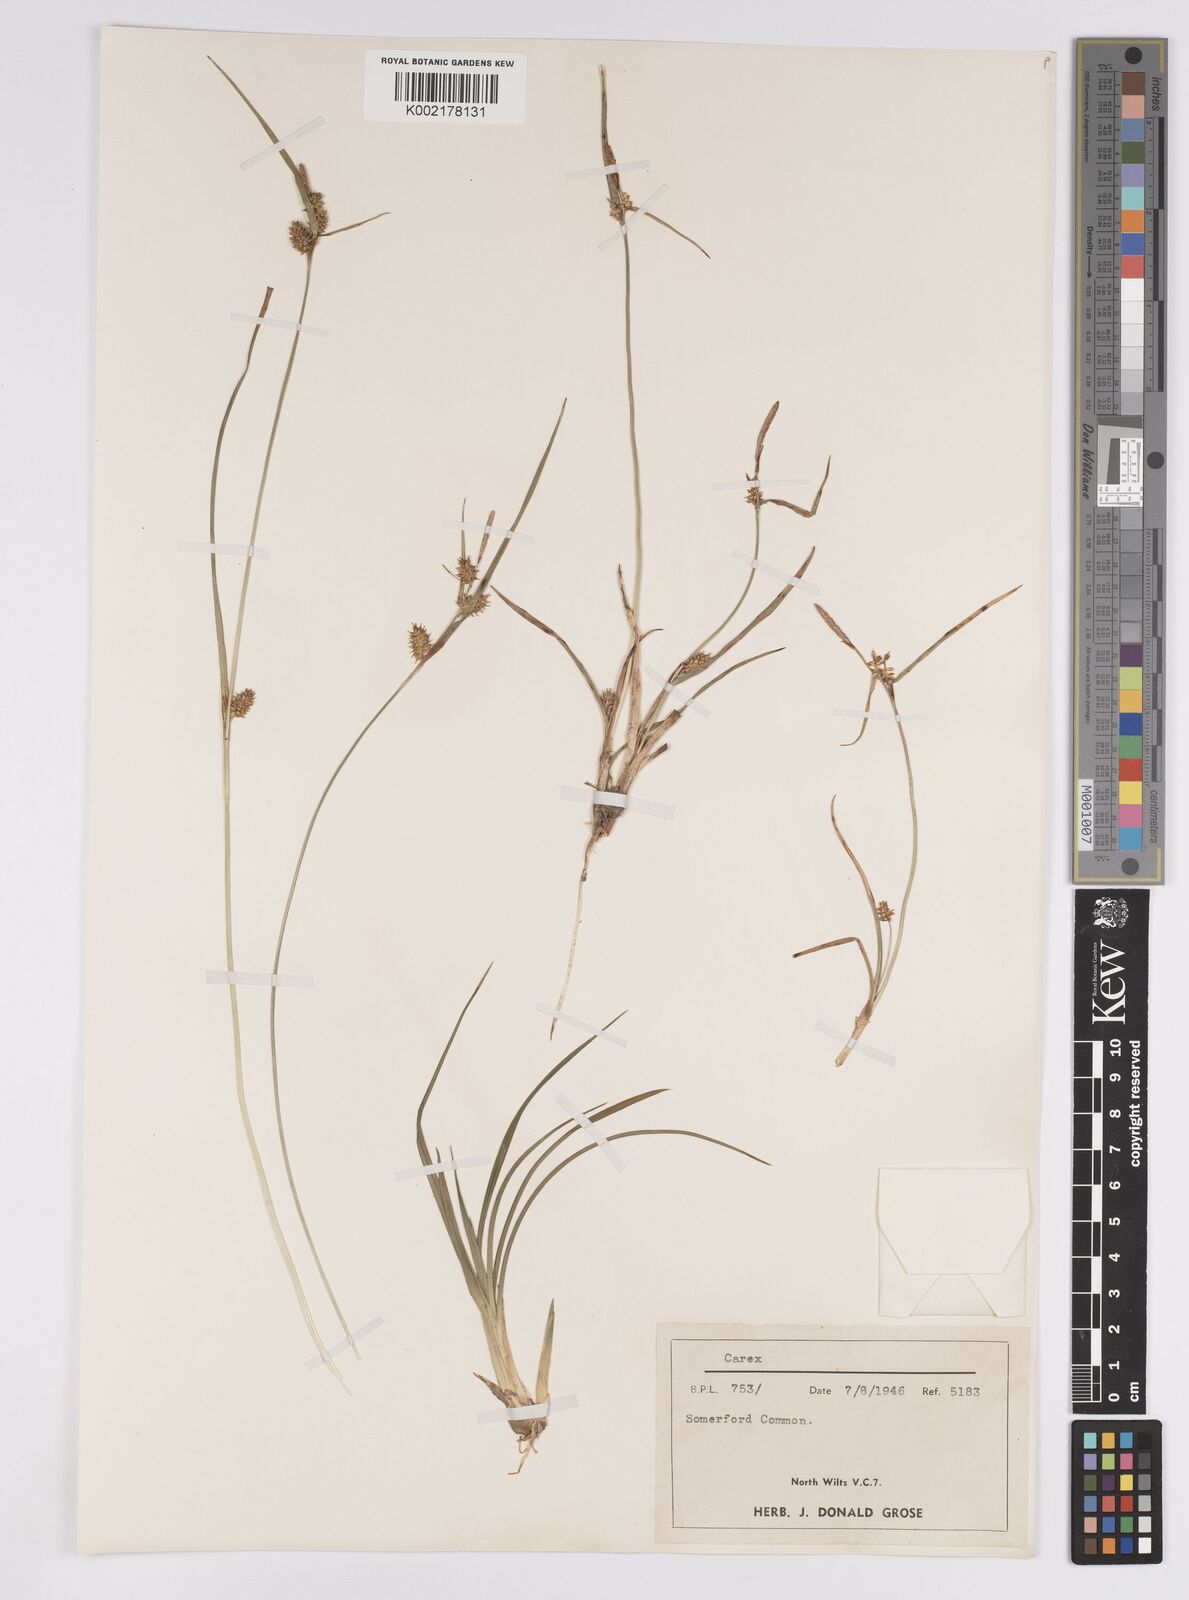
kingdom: Plantae
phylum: Tracheophyta
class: Liliopsida
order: Poales
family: Cyperaceae
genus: Carex
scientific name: Carex demissa
